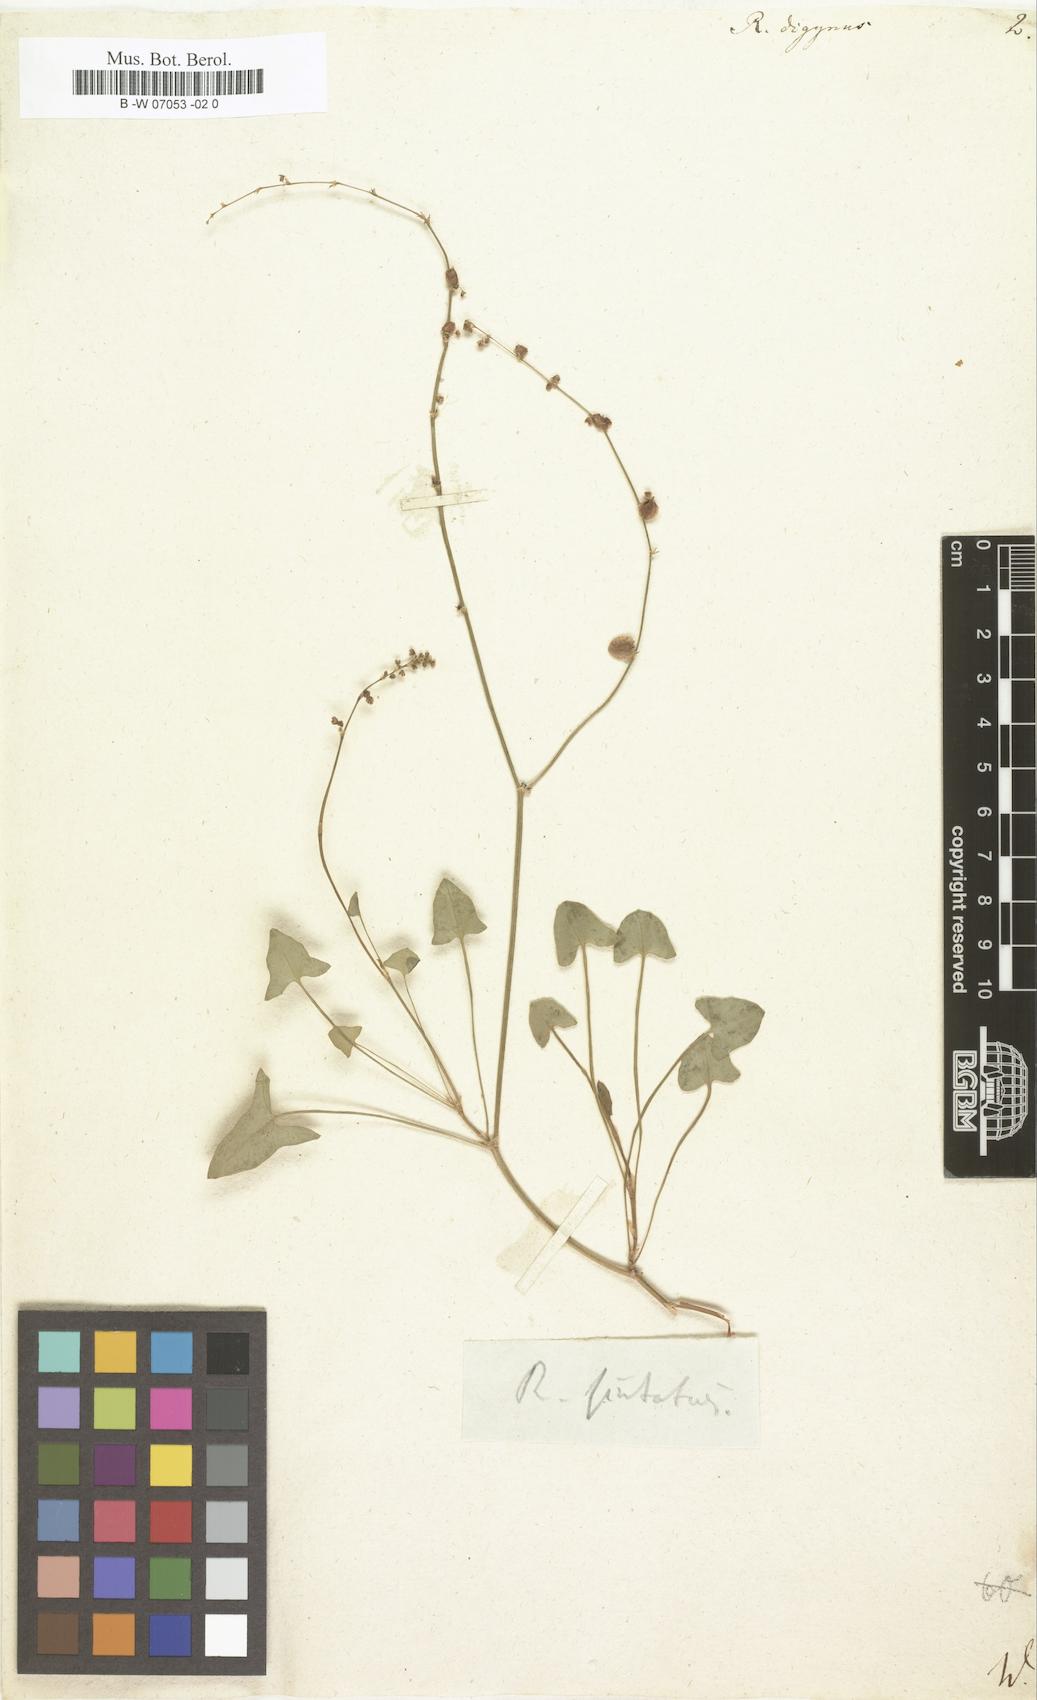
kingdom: Plantae
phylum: Tracheophyta
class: Magnoliopsida
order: Caryophyllales
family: Polygonaceae
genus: Oxyria
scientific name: Oxyria digyna
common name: Alpine mountain-sorrel
